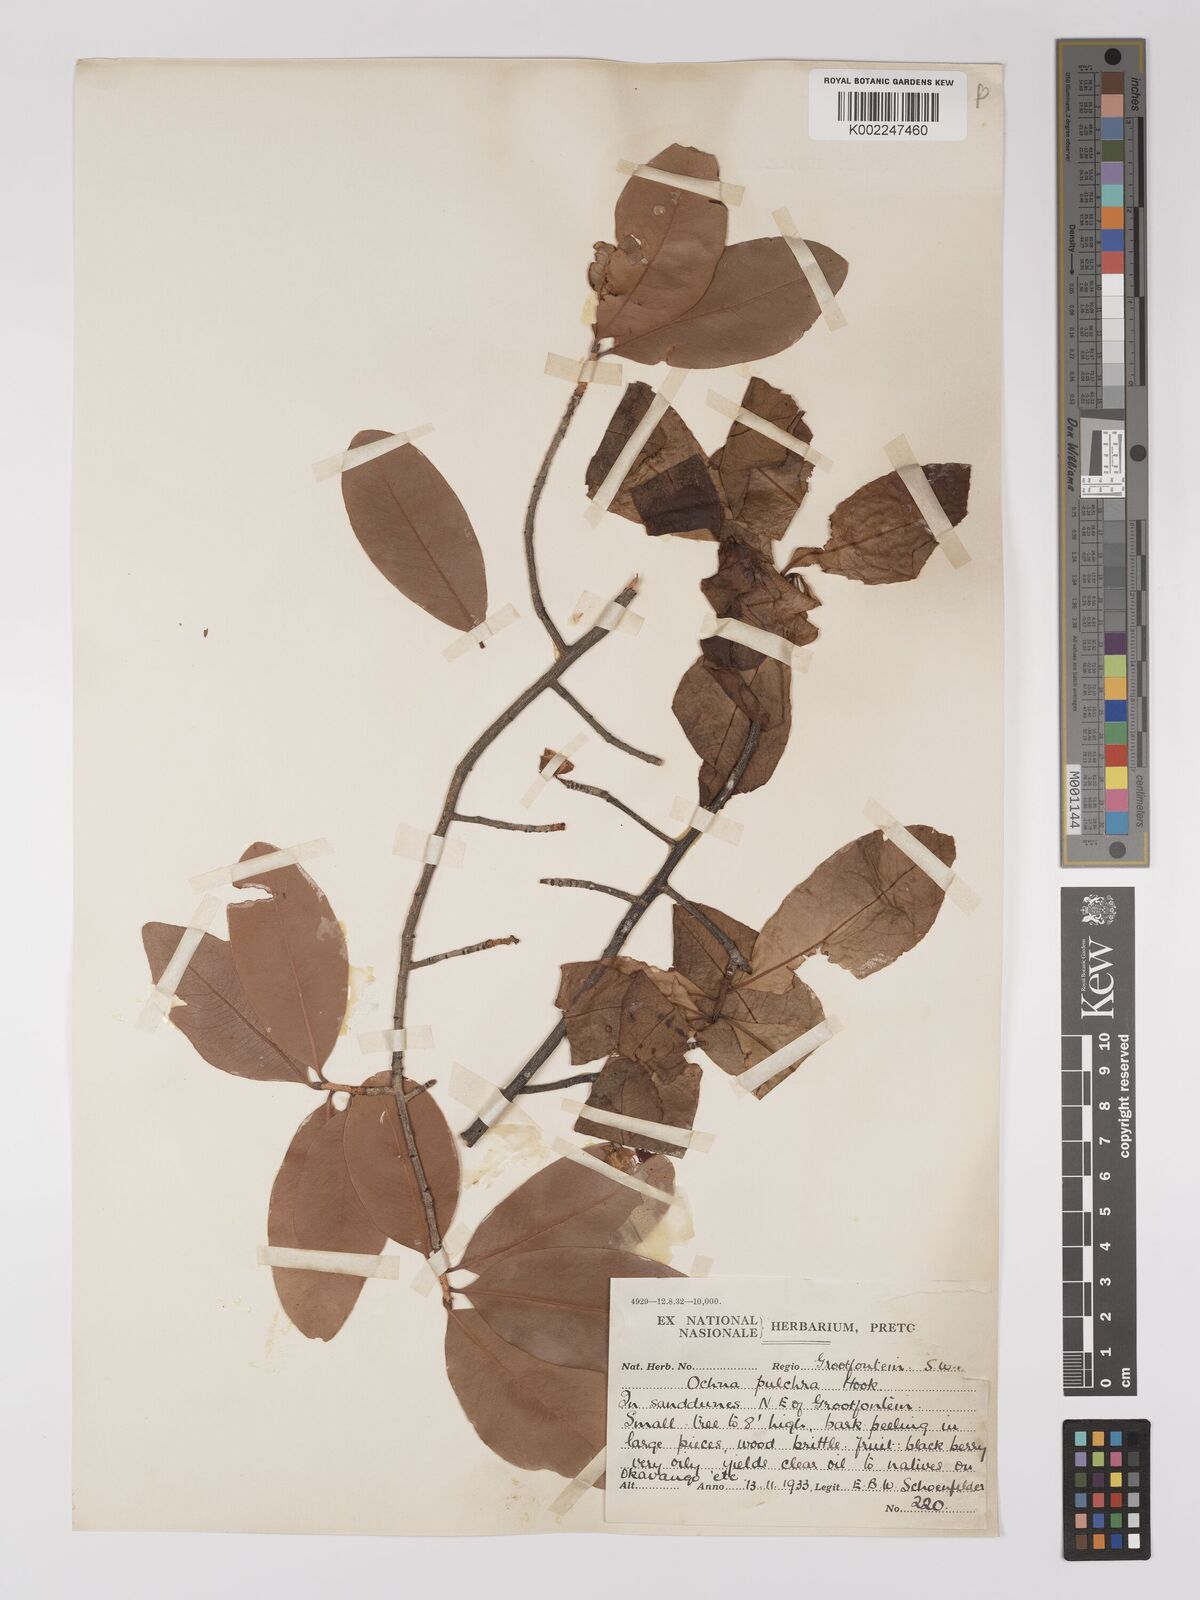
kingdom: Plantae
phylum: Tracheophyta
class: Magnoliopsida
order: Malpighiales
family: Ochnaceae
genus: Ochna
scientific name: Ochna pulchra
